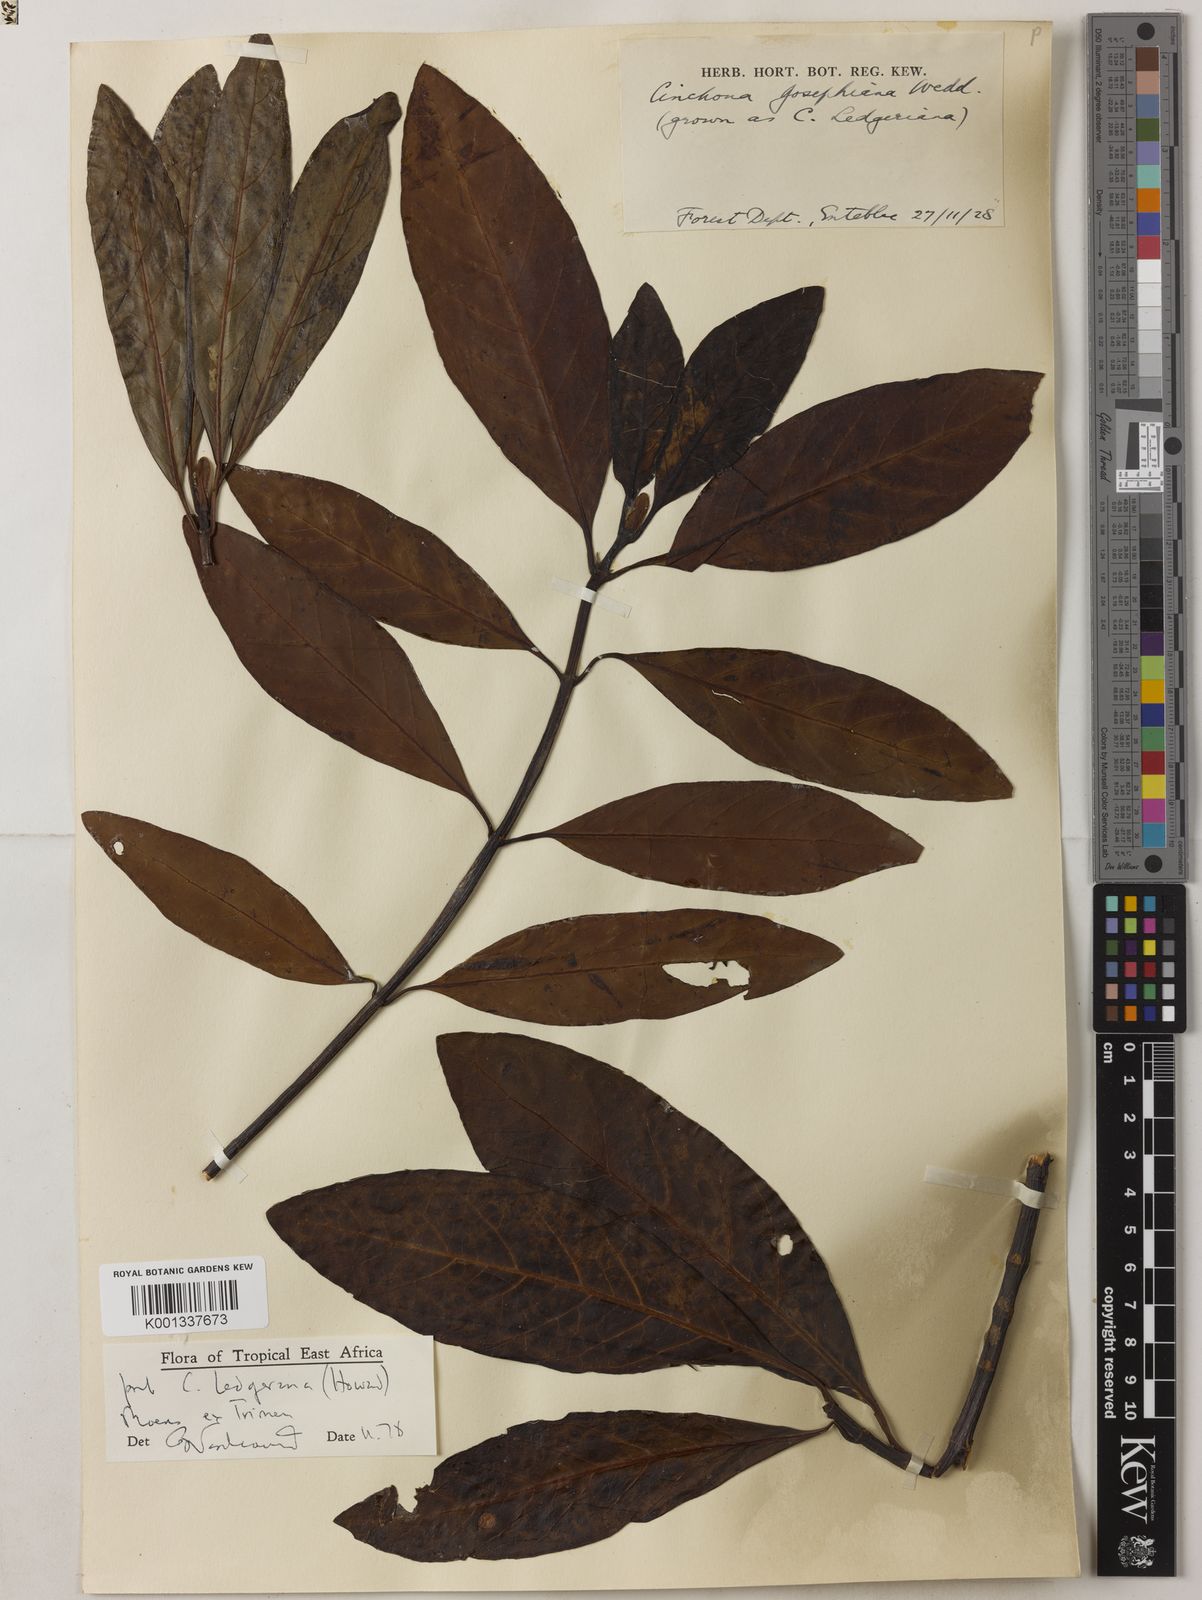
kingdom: Plantae
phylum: Tracheophyta
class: Magnoliopsida
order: Gentianales
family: Rubiaceae
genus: Cinchona
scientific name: Cinchona officinalis
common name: Lojabark
